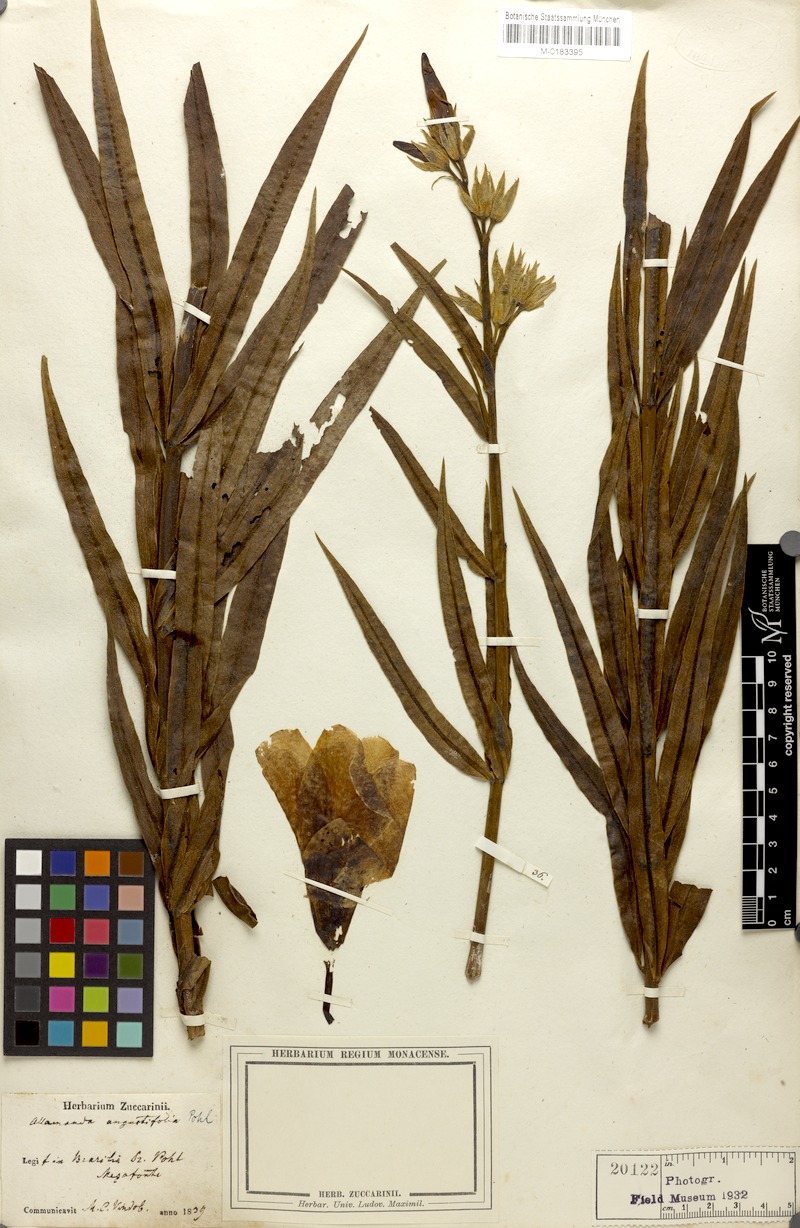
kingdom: Plantae
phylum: Tracheophyta
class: Magnoliopsida
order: Gentianales
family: Apocynaceae
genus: Allamanda
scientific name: Allamanda angustifolia
